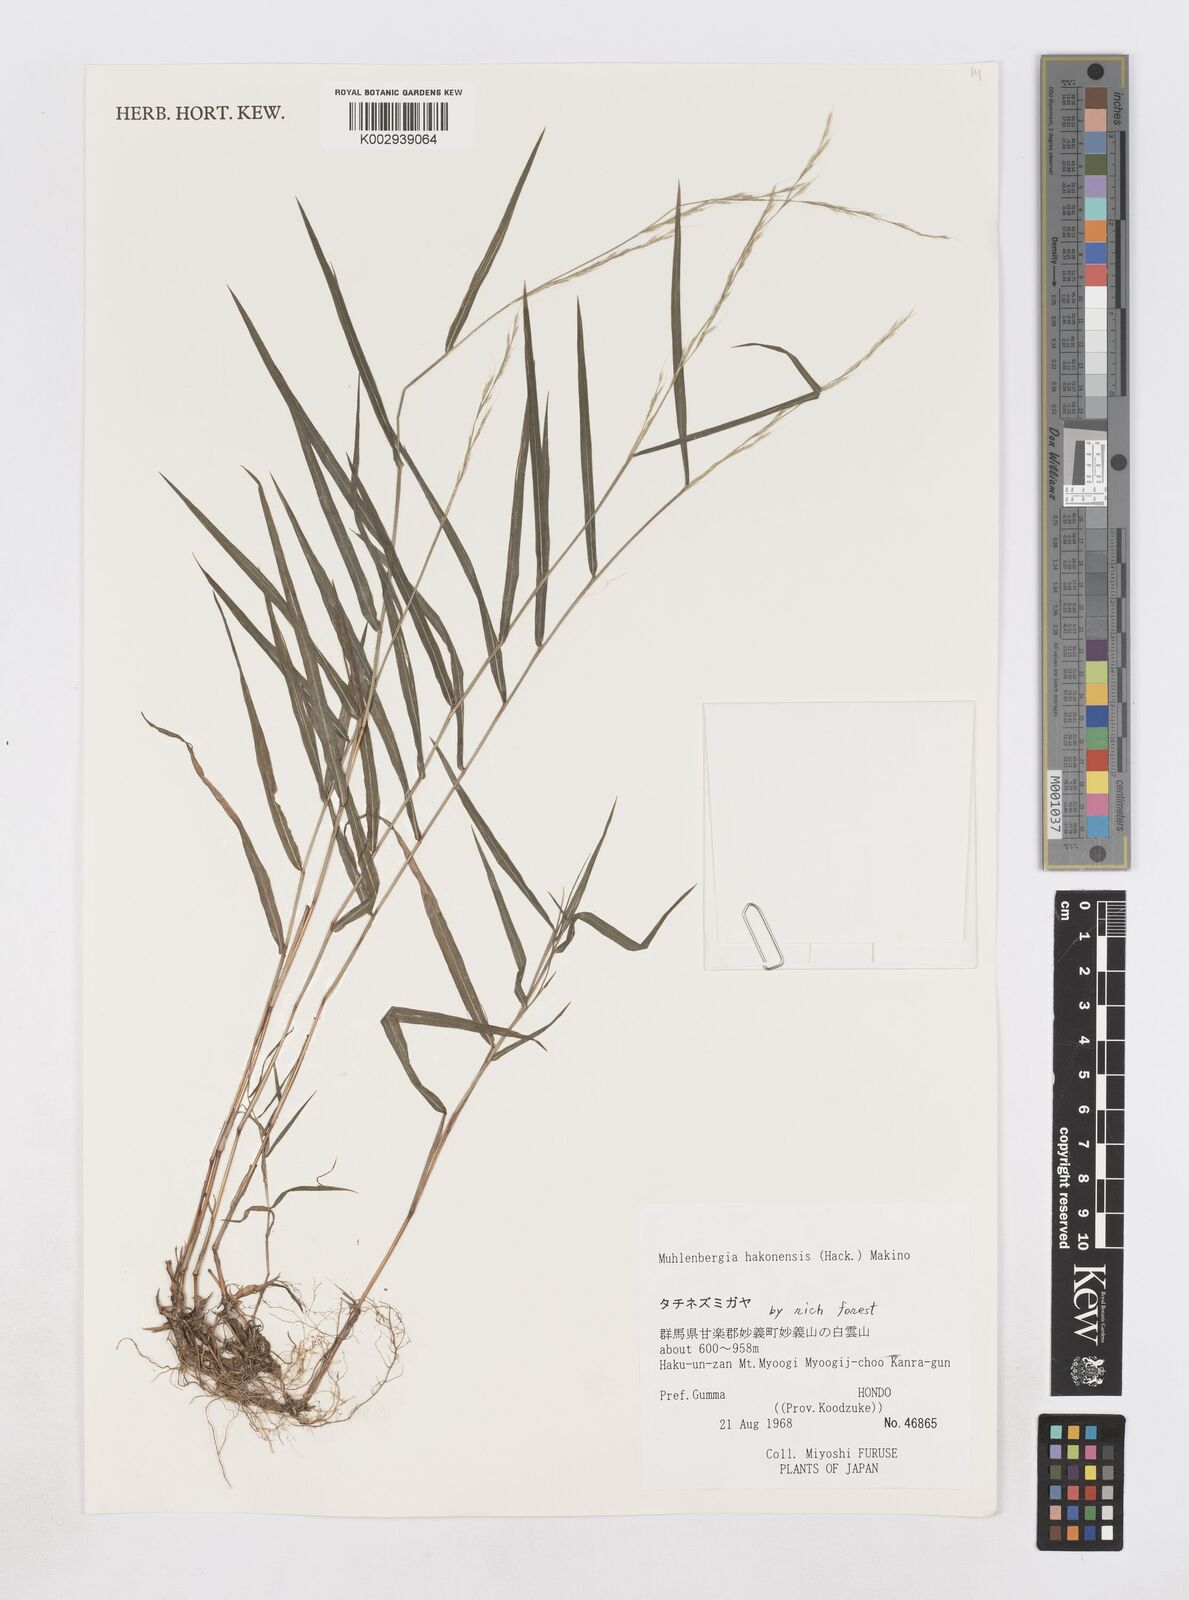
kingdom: Plantae
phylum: Tracheophyta
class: Liliopsida
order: Poales
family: Poaceae
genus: Muhlenbergia
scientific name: Muhlenbergia hakonensis
